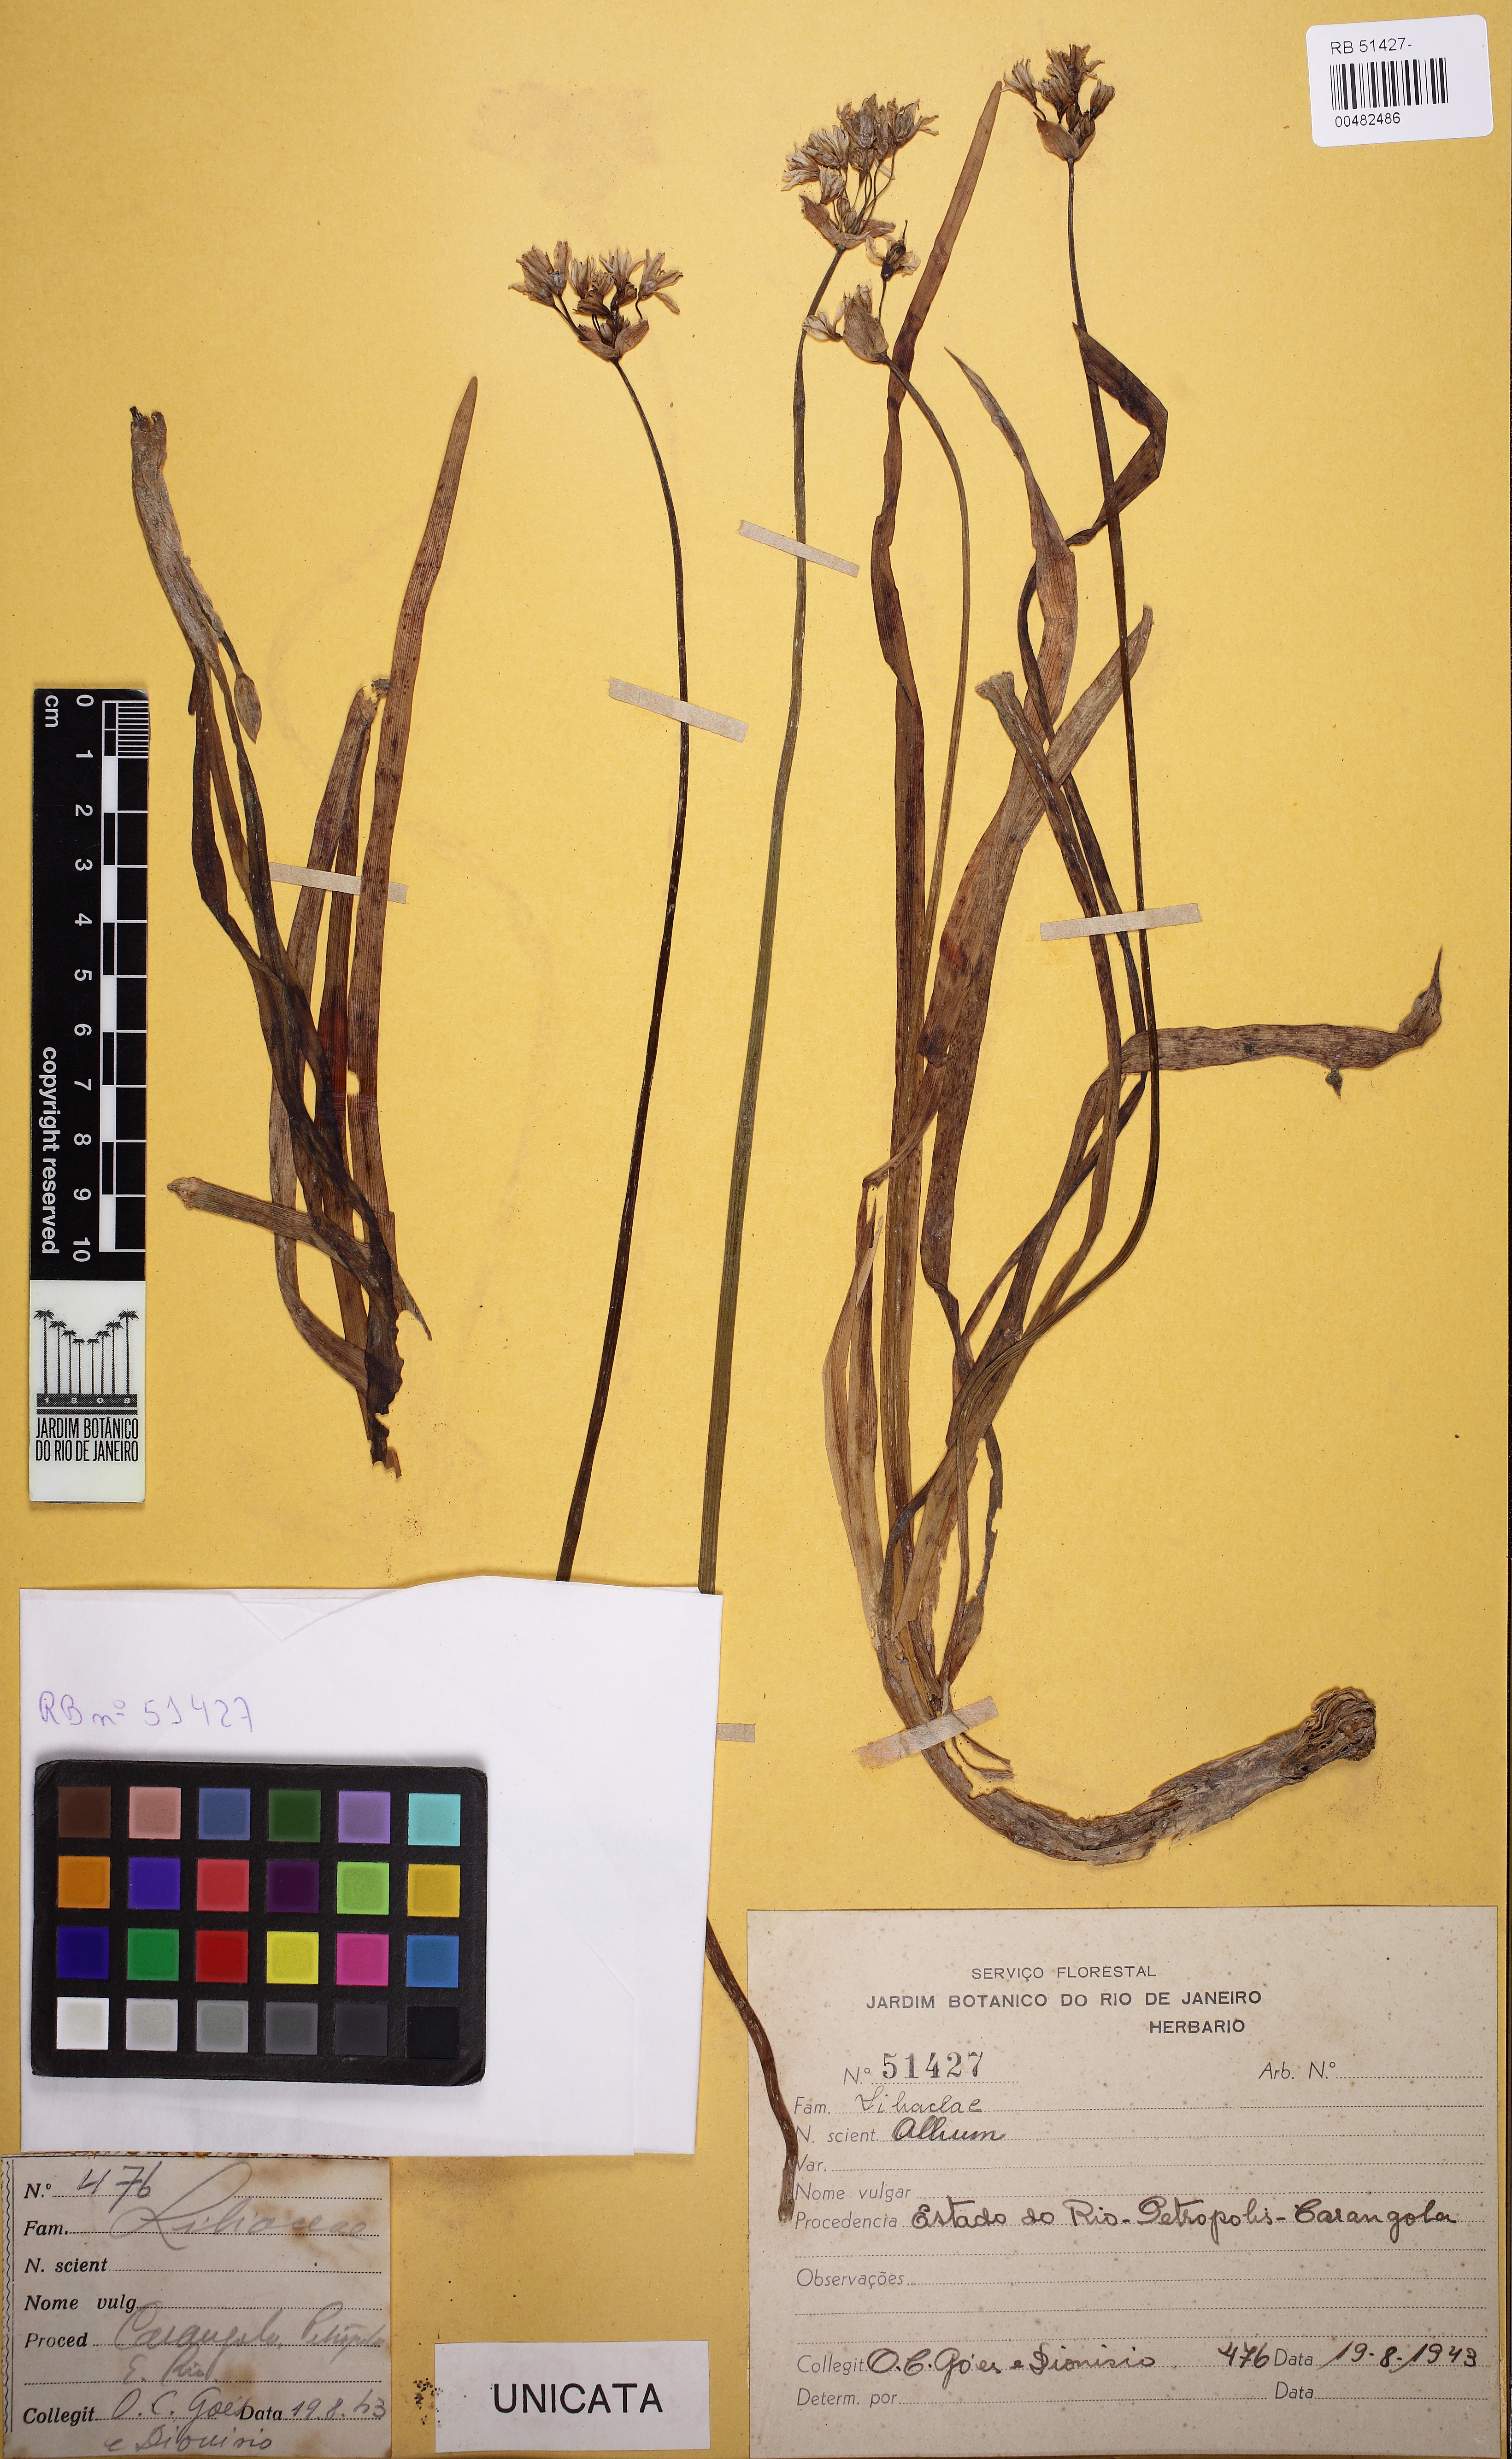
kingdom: Plantae
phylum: Tracheophyta
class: Liliopsida
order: Asparagales
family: Amaryllidaceae
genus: Allium
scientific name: Allium
